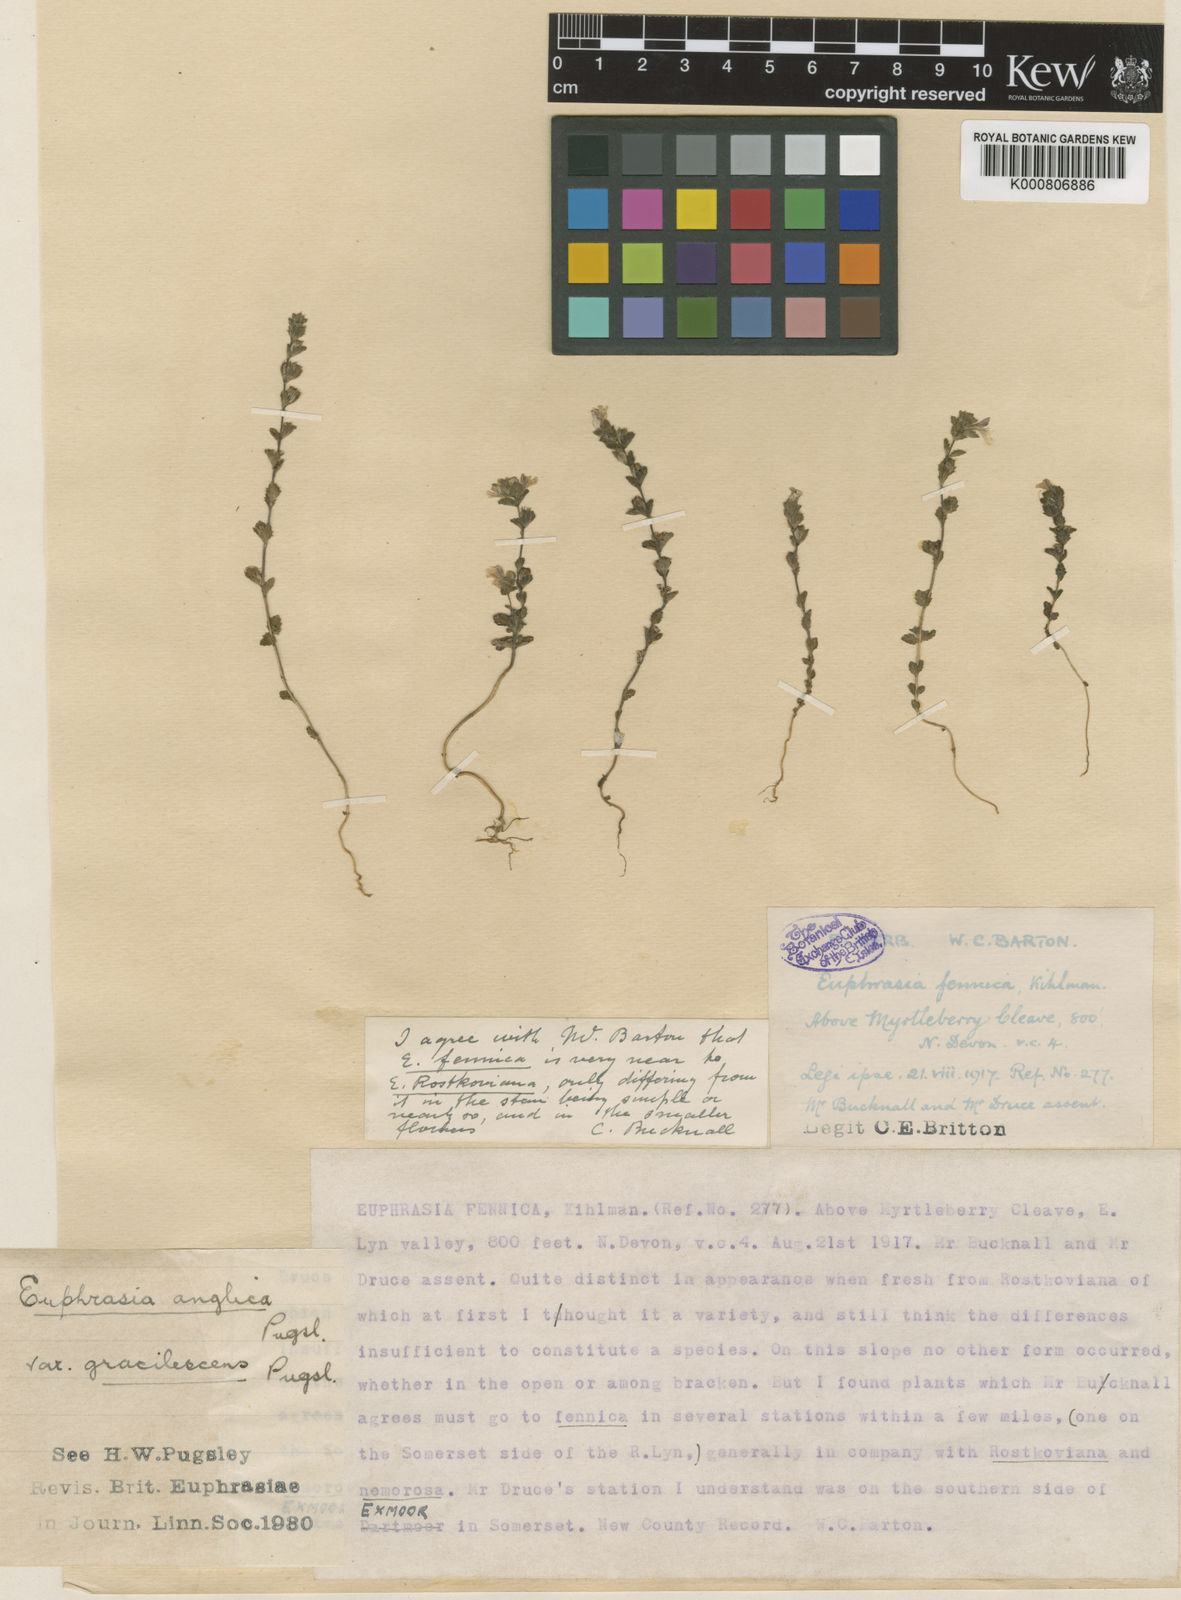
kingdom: Plantae
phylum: Tracheophyta
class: Magnoliopsida
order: Lamiales
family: Orobanchaceae
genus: Euphrasia
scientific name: Euphrasia officinalis
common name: Eyebright
